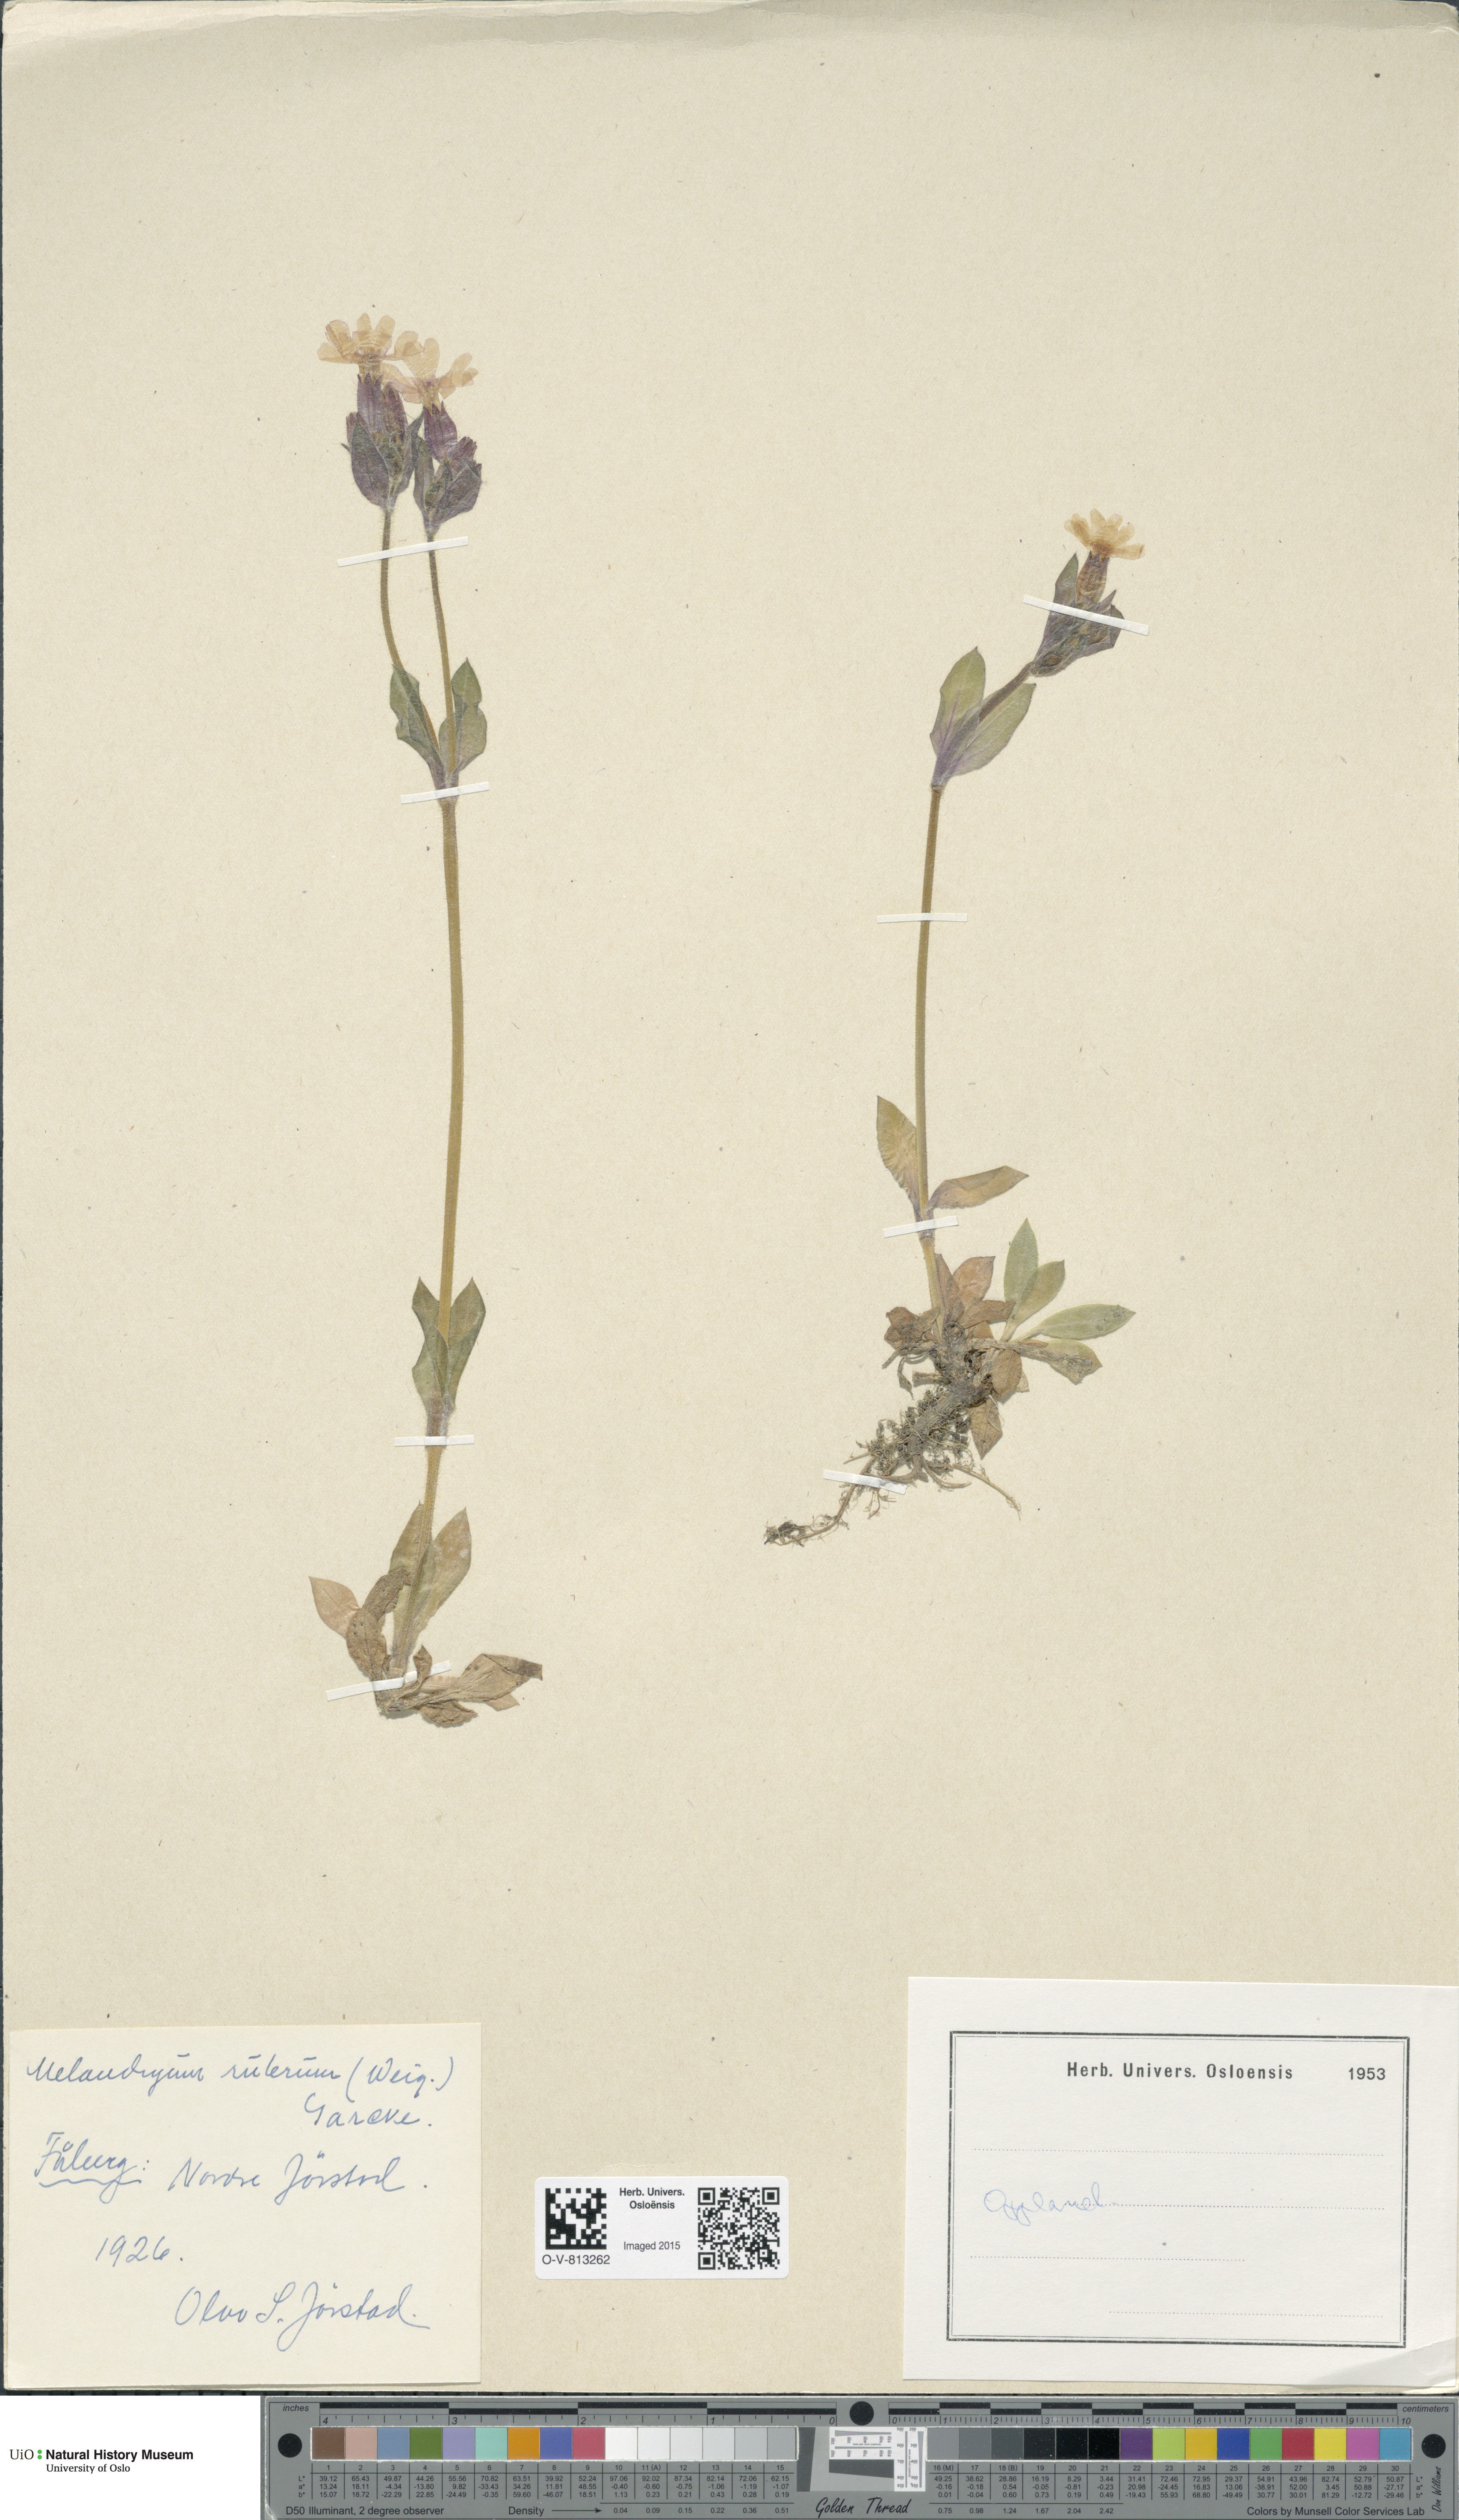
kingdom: Plantae
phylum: Tracheophyta
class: Magnoliopsida
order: Caryophyllales
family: Caryophyllaceae
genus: Silene
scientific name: Silene dioica
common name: Red campion
